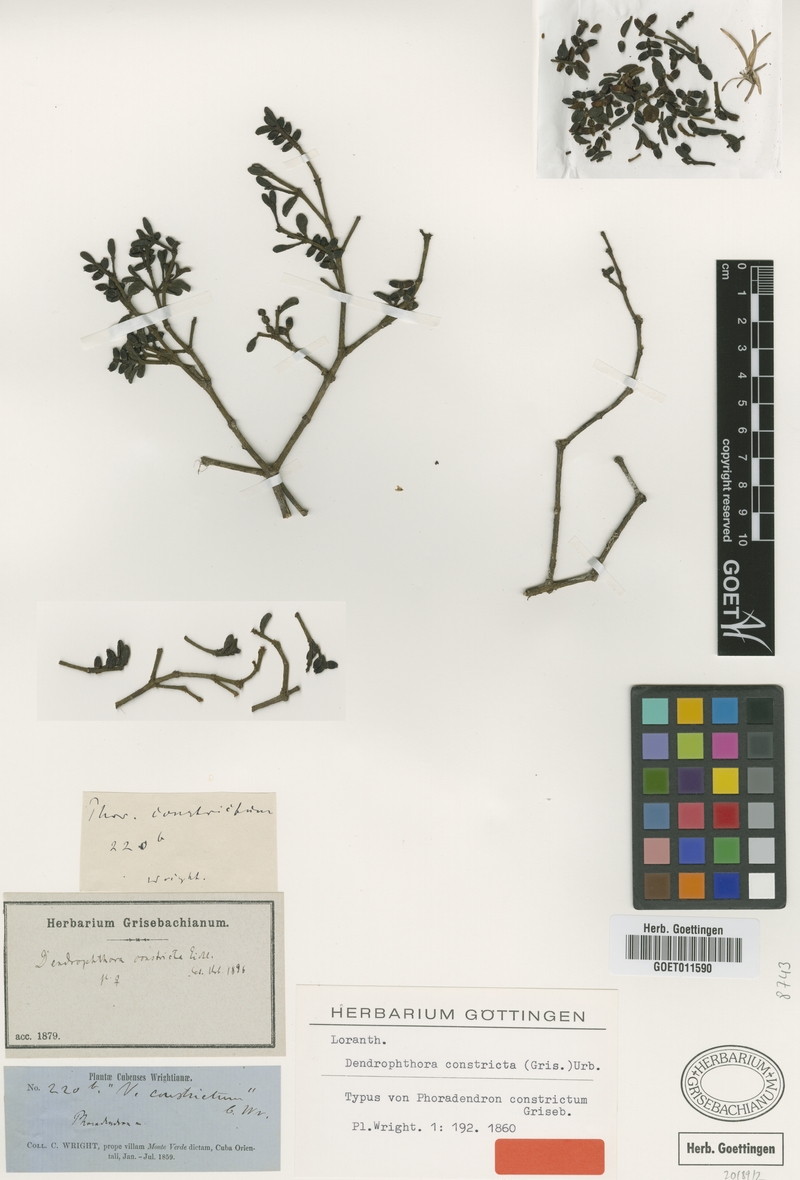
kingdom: Plantae
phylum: Tracheophyta
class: Magnoliopsida
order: Santalales
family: Viscaceae
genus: Dendrophthora
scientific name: Dendrophthora constricta
